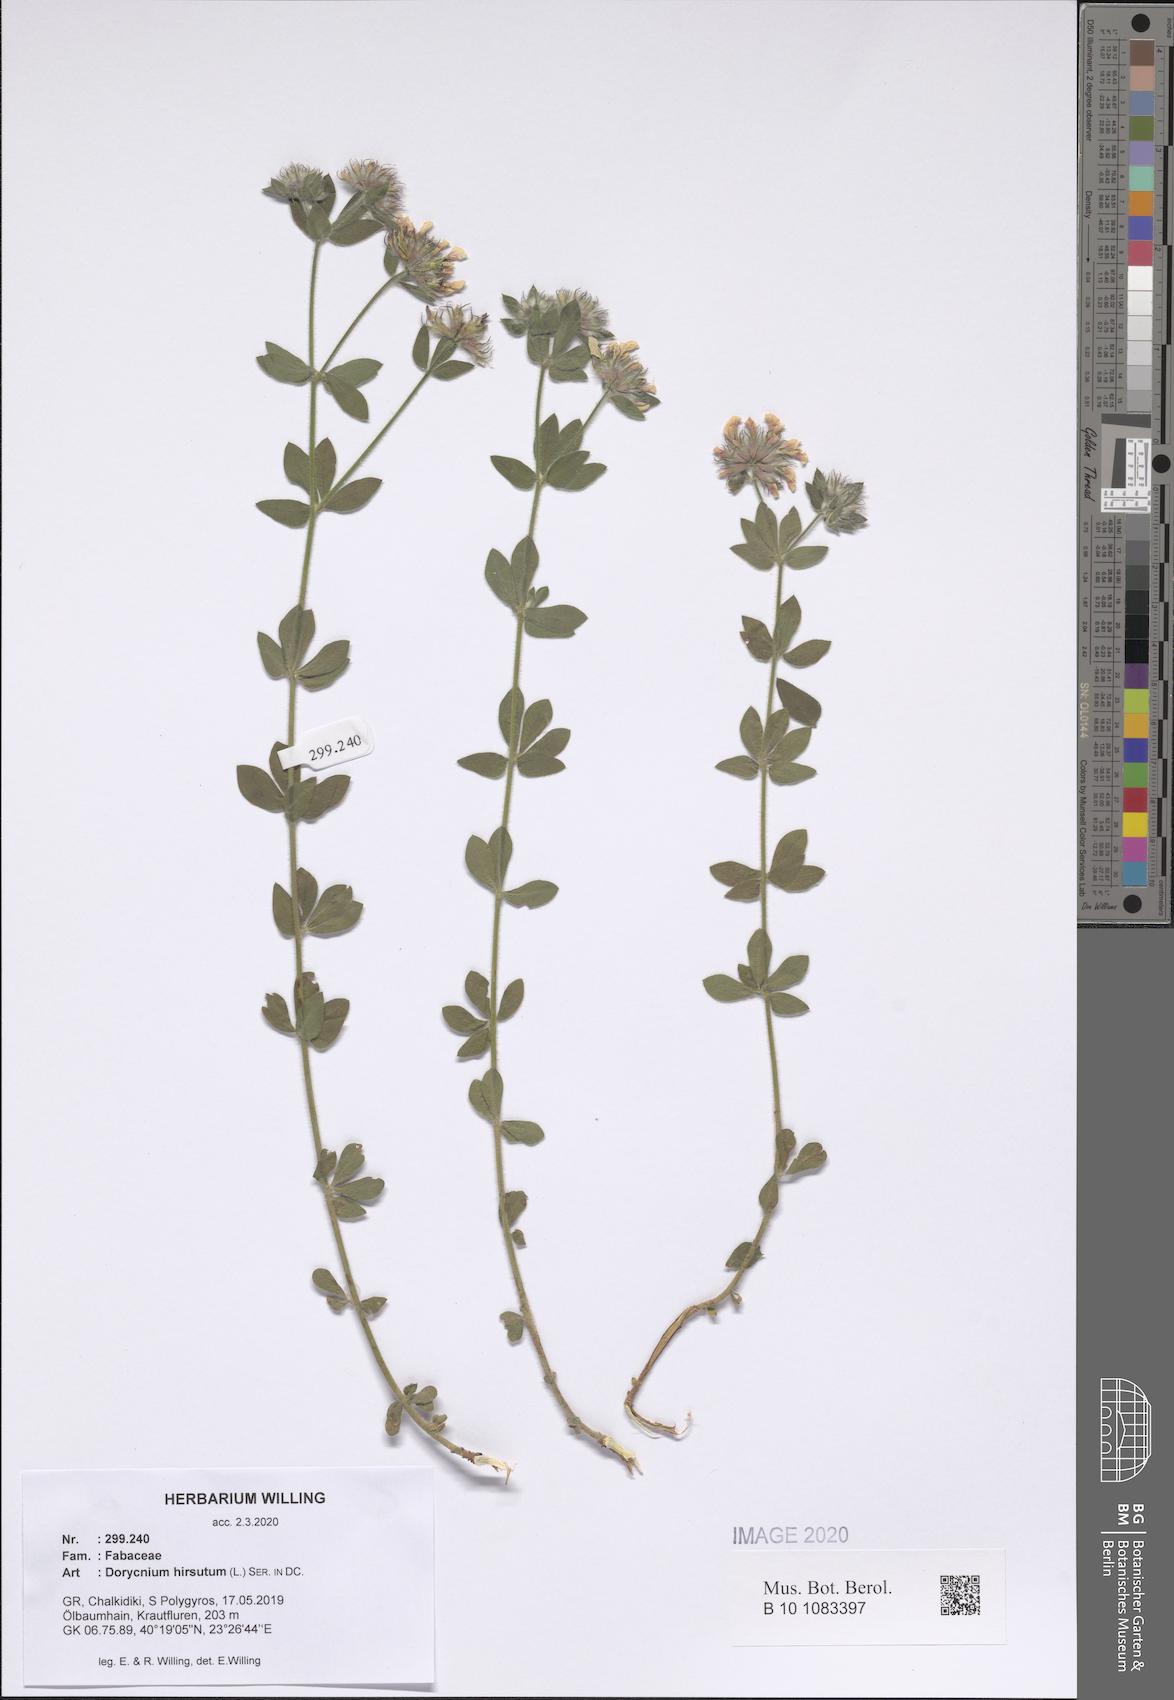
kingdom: Plantae
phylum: Tracheophyta
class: Magnoliopsida
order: Fabales
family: Fabaceae
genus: Lotus
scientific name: Lotus hirsutus
